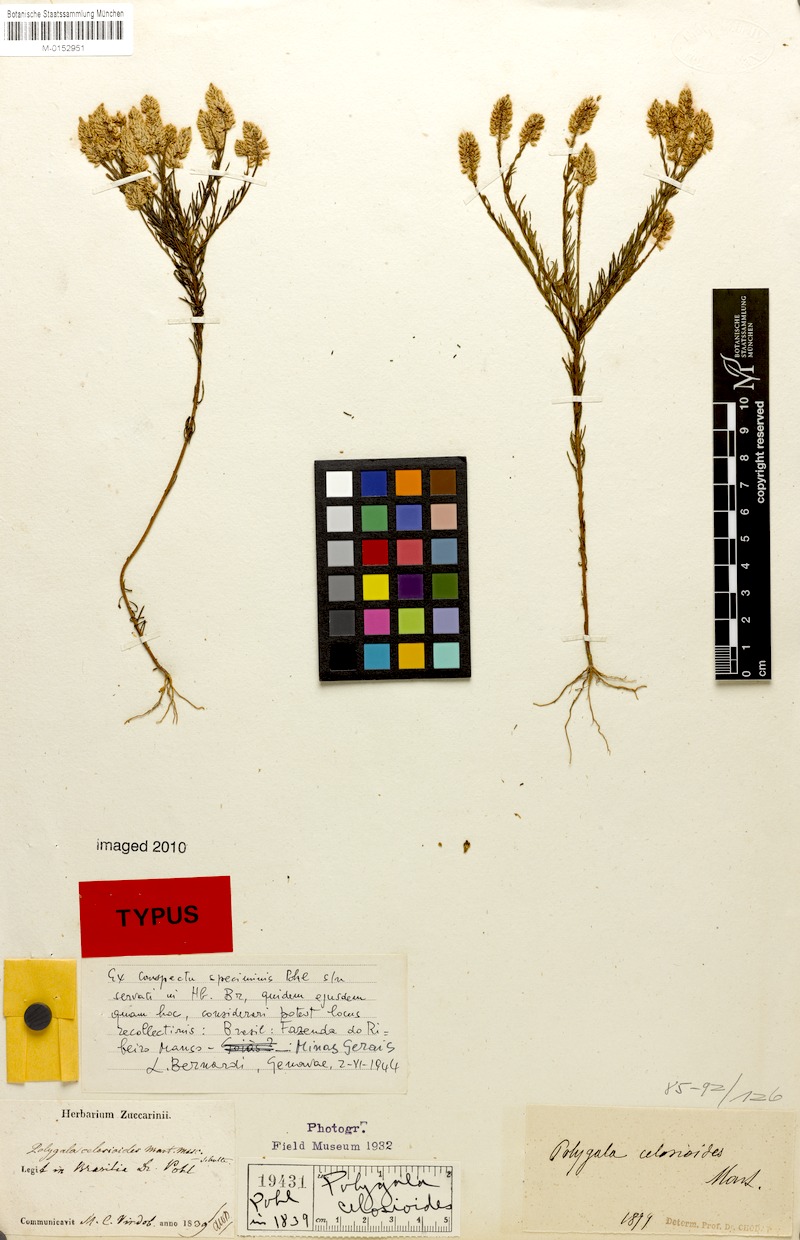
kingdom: Plantae
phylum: Tracheophyta
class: Magnoliopsida
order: Fabales
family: Polygalaceae
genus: Polygala
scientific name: Polygala celosioides
